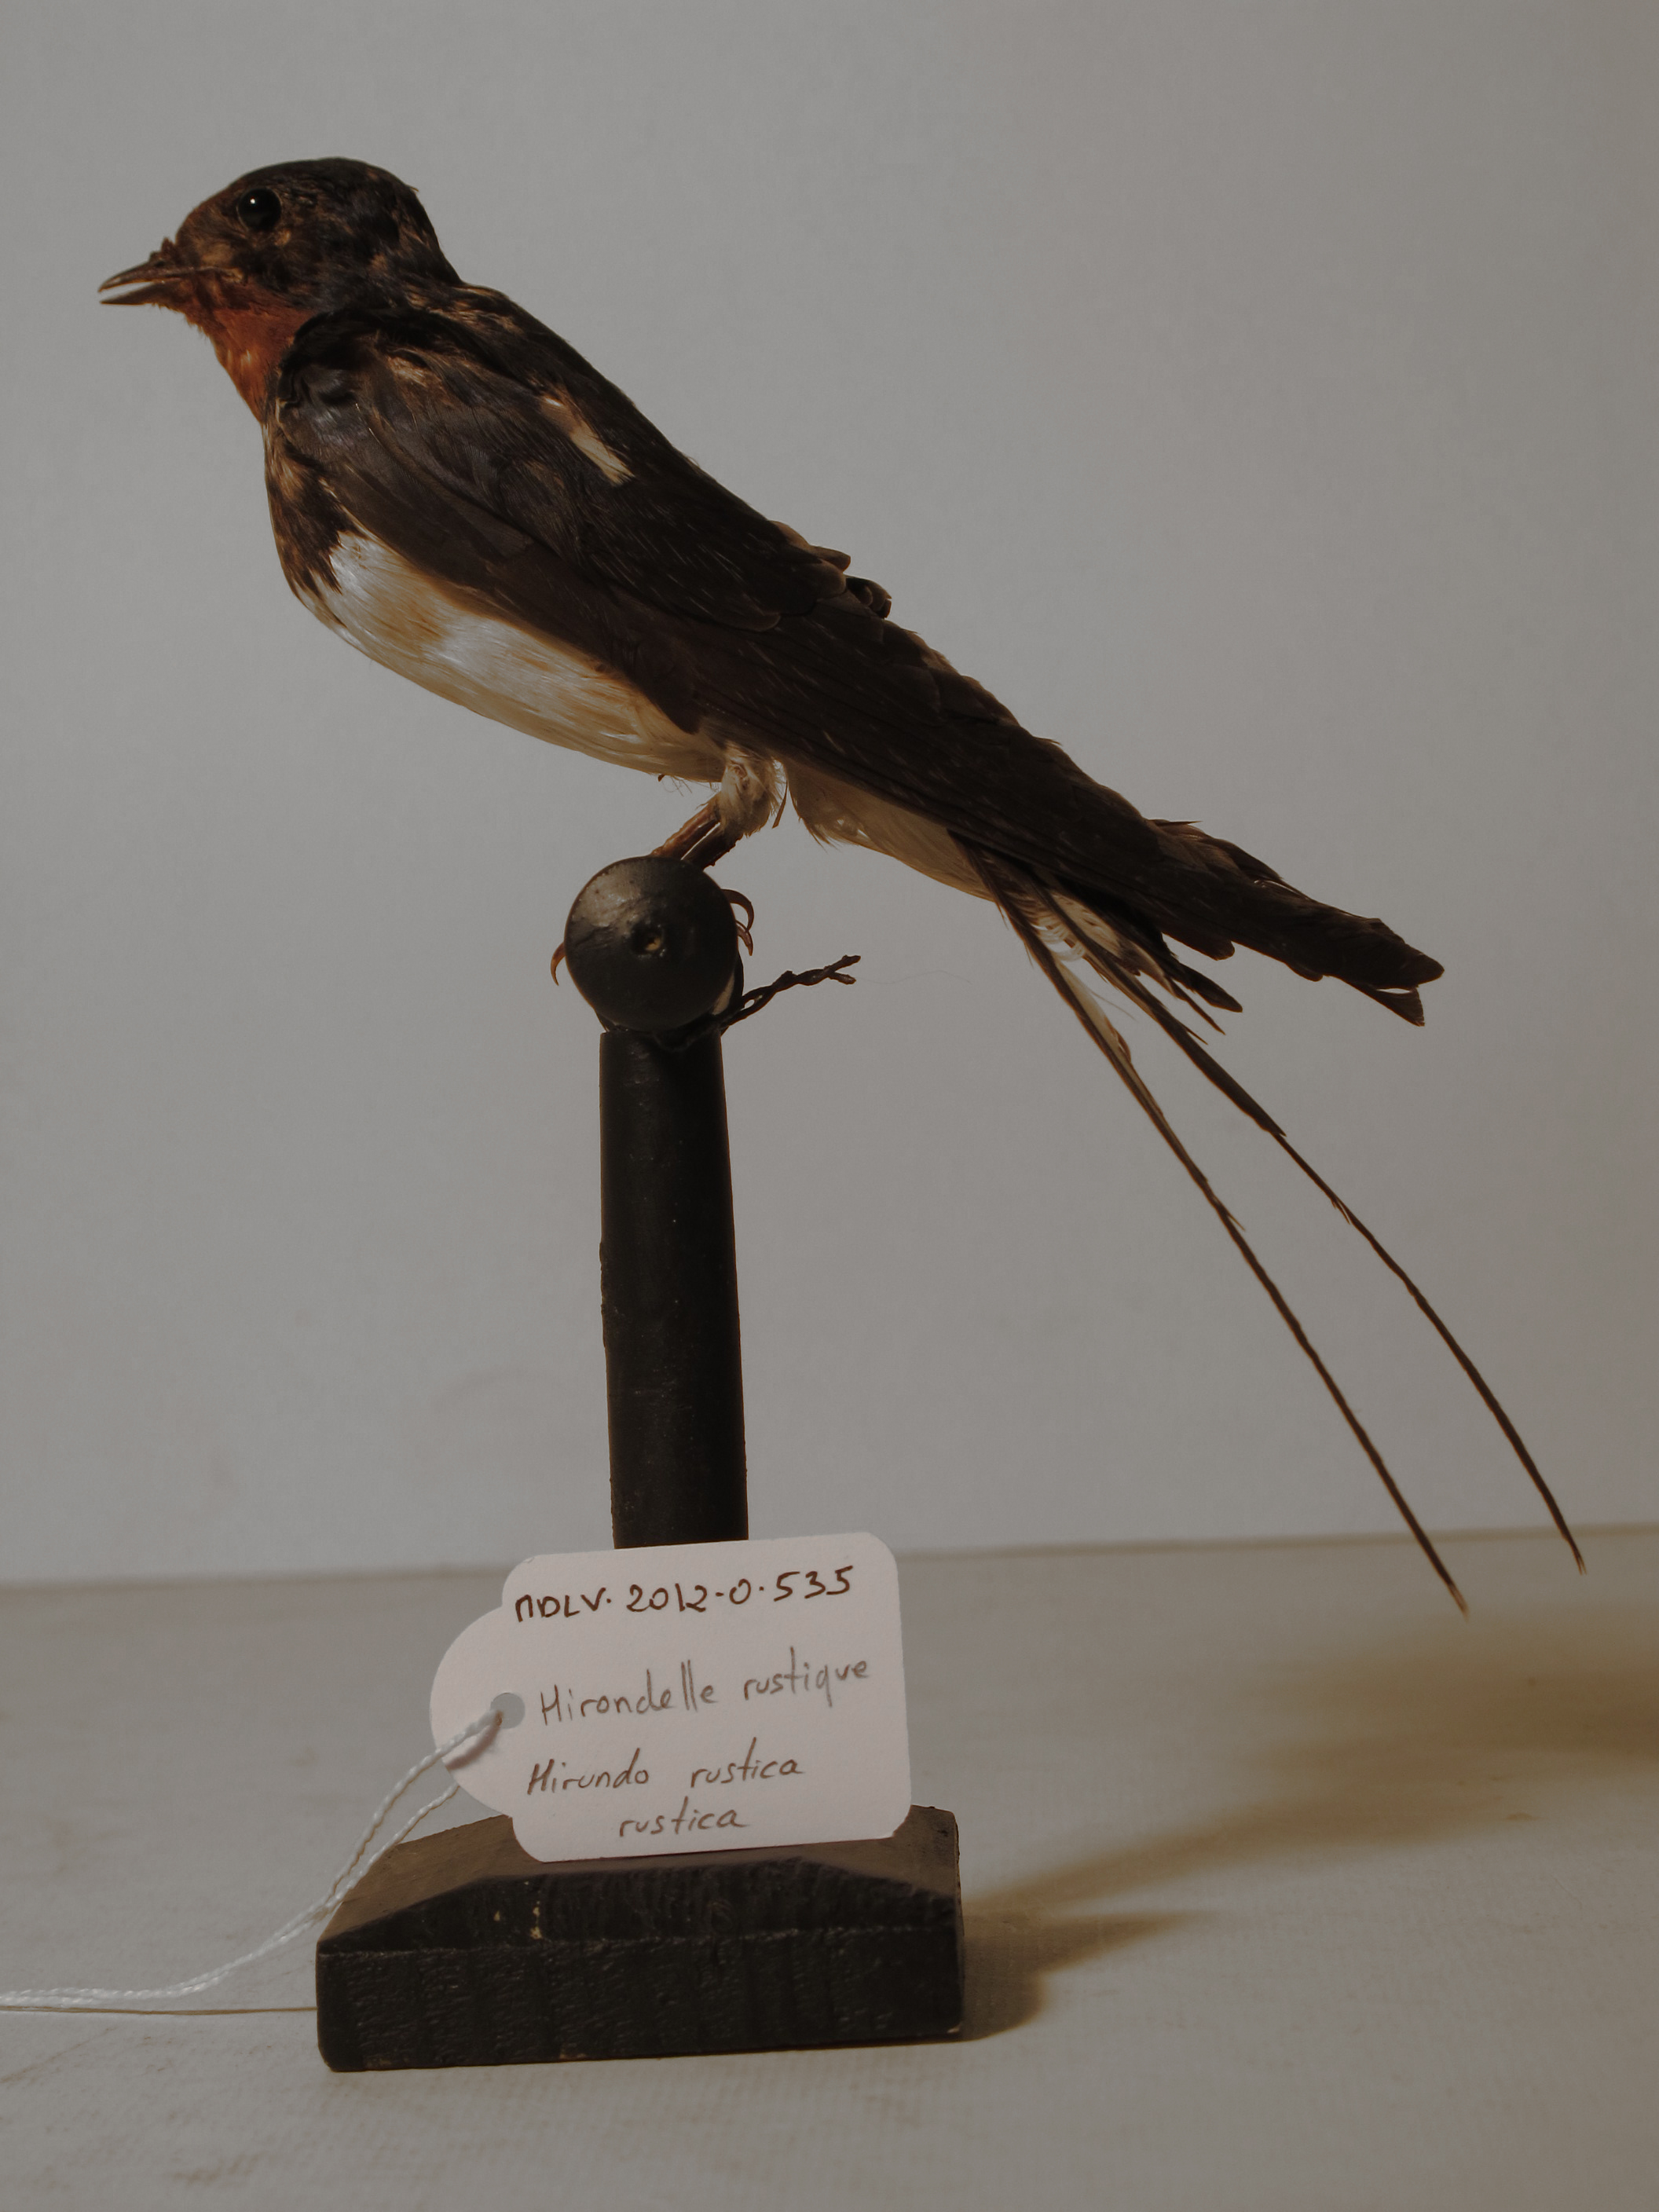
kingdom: Animalia
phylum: Chordata
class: Aves
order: Passeriformes
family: Hirundinidae
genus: Hirundo
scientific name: Hirundo rustica
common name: Barn Swallow
